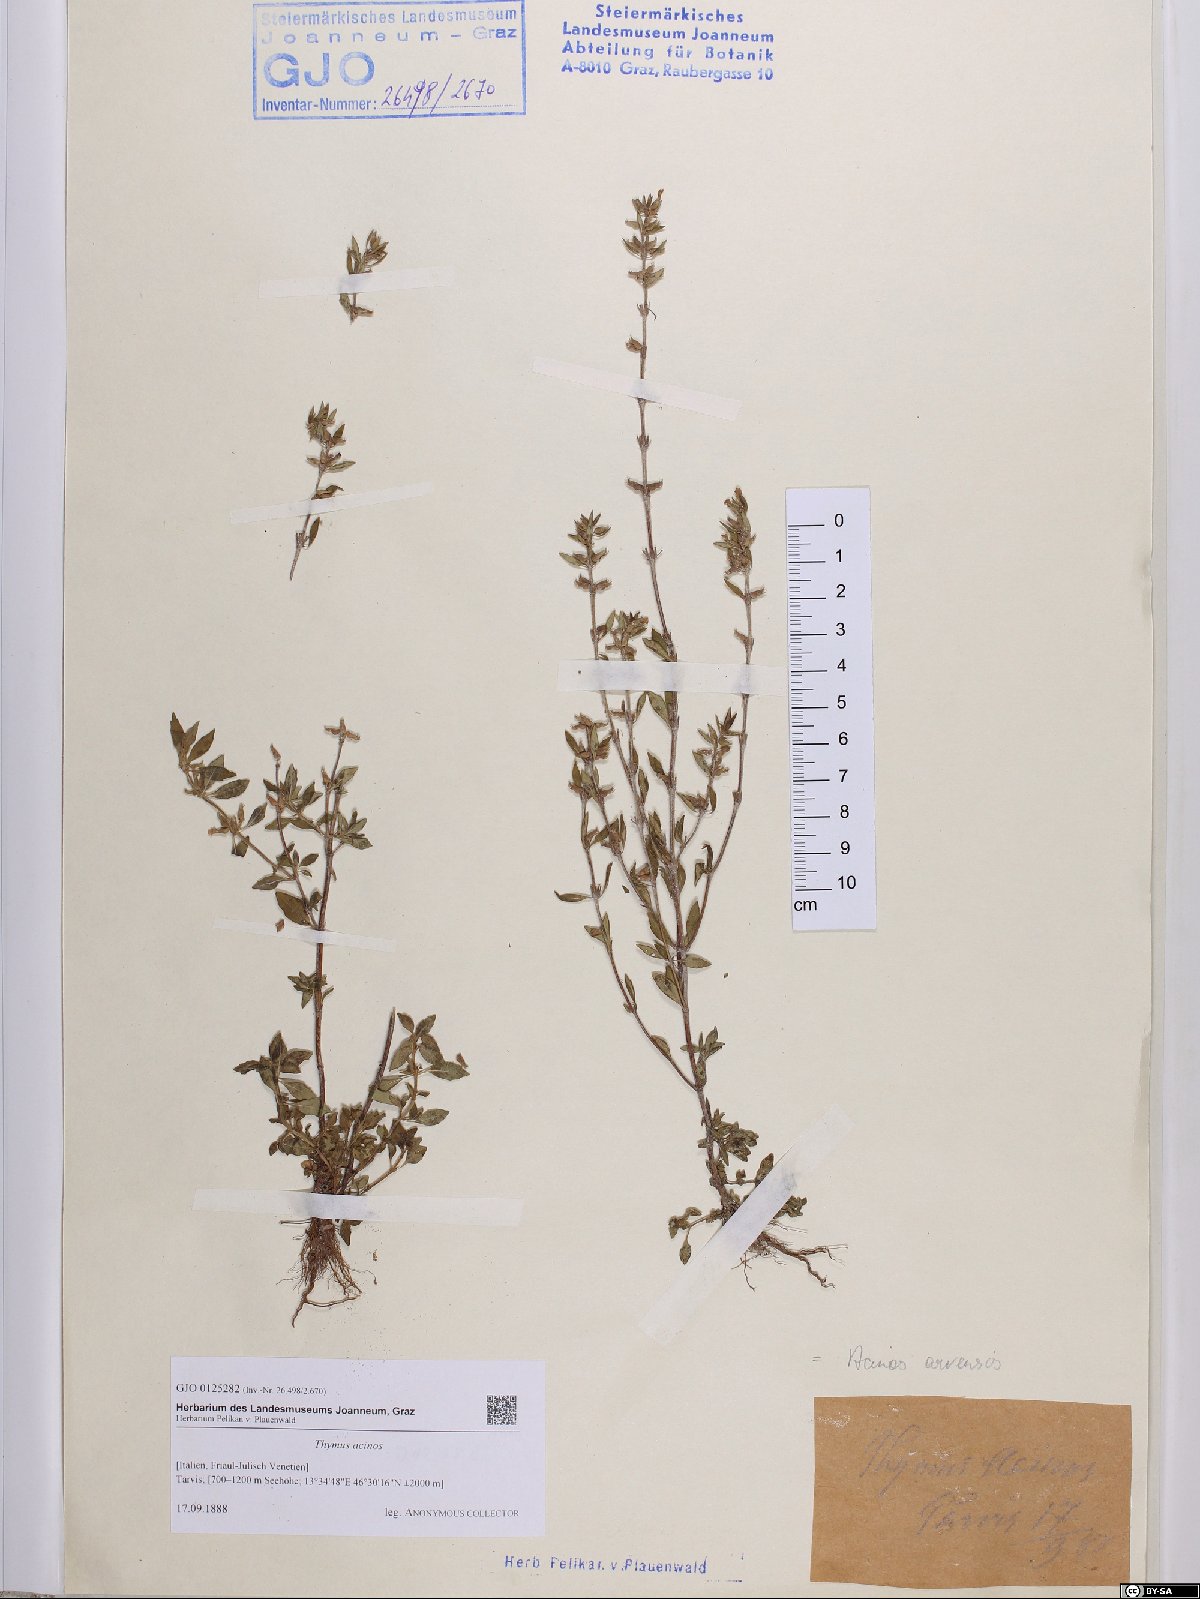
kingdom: Plantae
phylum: Tracheophyta
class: Magnoliopsida
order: Lamiales
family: Lamiaceae
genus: Clinopodium
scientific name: Clinopodium acinos
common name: Basil thyme
